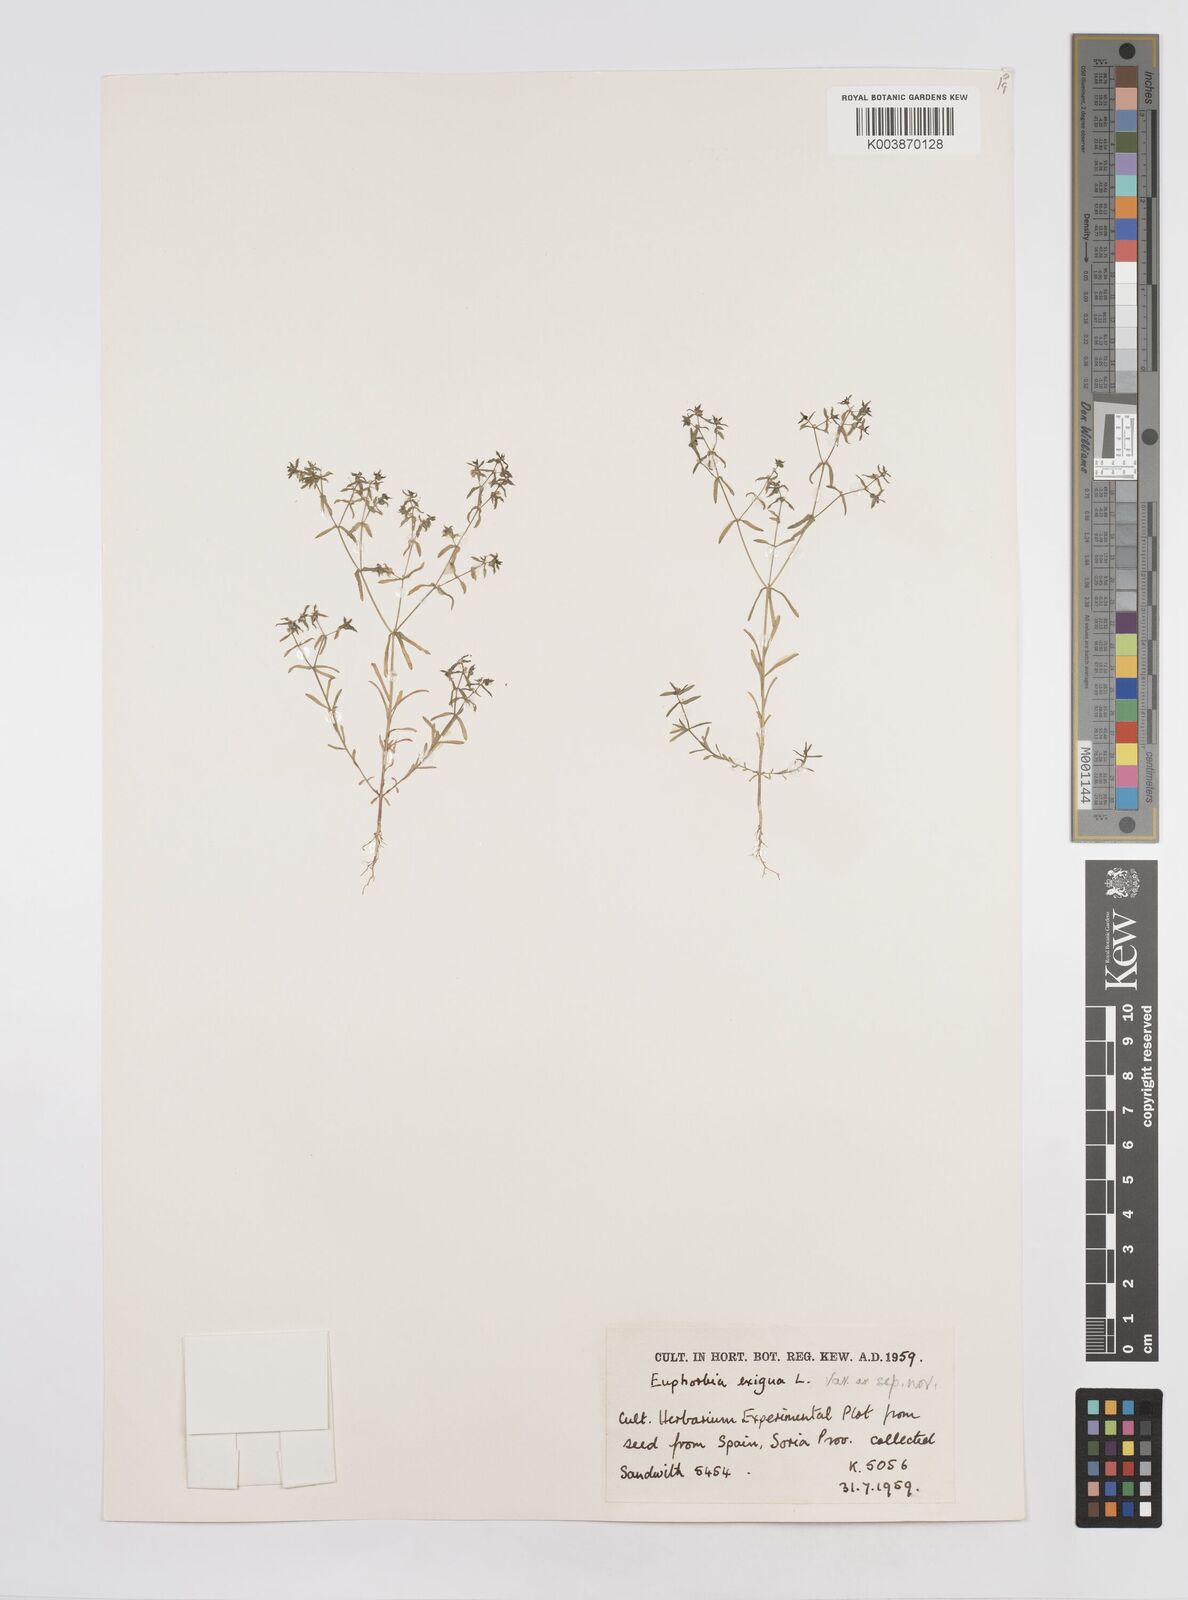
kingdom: Plantae
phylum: Tracheophyta
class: Magnoliopsida
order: Malpighiales
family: Euphorbiaceae
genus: Euphorbia
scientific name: Euphorbia exigua
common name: Dwarf spurge
